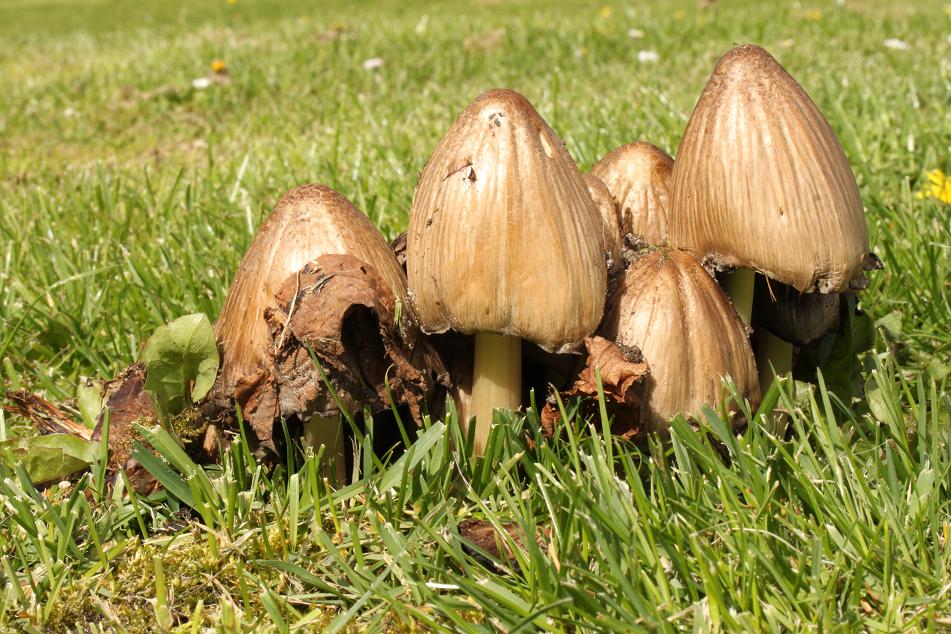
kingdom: Fungi
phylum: Basidiomycota
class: Agaricomycetes
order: Agaricales
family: Psathyrellaceae
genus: Coprinopsis
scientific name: Coprinopsis atramentaria
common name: almindelig blækhat
